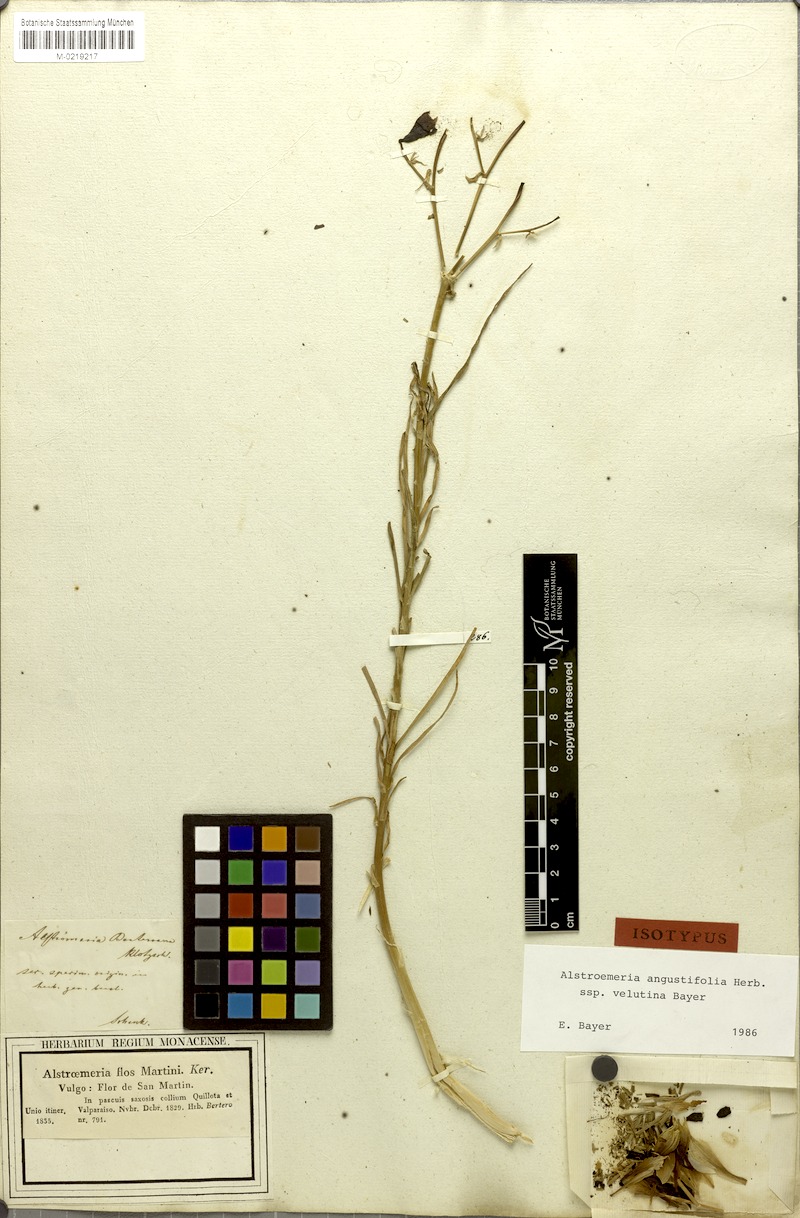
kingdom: Plantae
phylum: Tracheophyta
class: Liliopsida
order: Liliales
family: Alstroemeriaceae
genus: Alstroemeria
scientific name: Alstroemeria angustifolia
